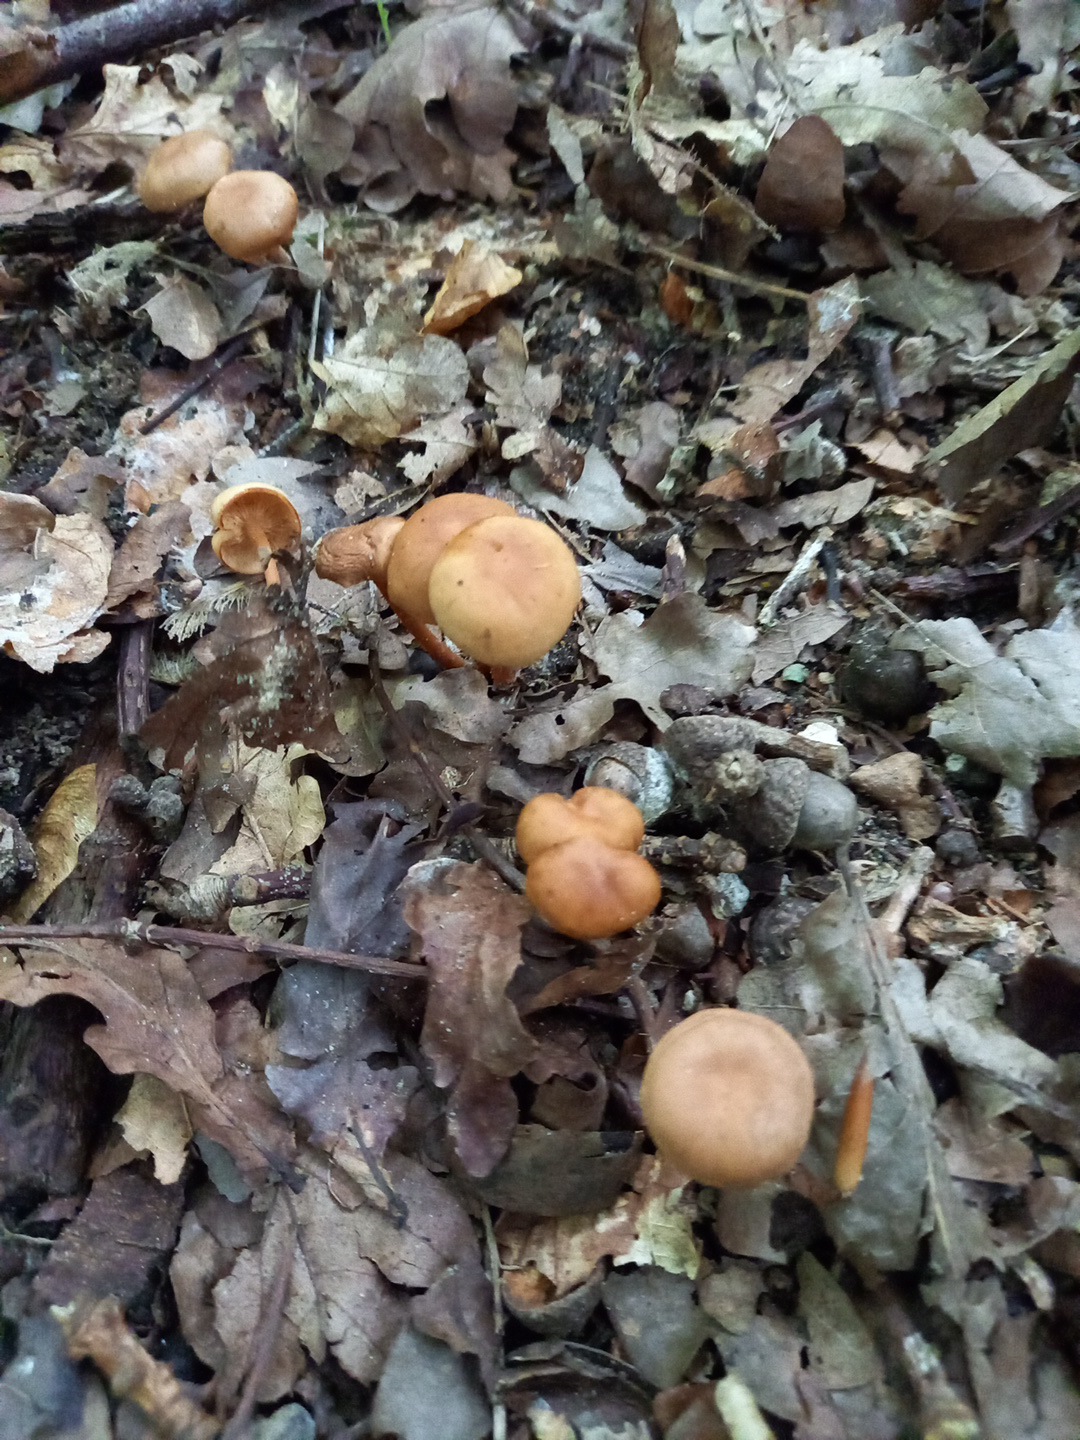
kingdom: Fungi
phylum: Basidiomycota
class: Agaricomycetes
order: Agaricales
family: Omphalotaceae
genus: Gymnopus
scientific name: Gymnopus
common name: fladhat
